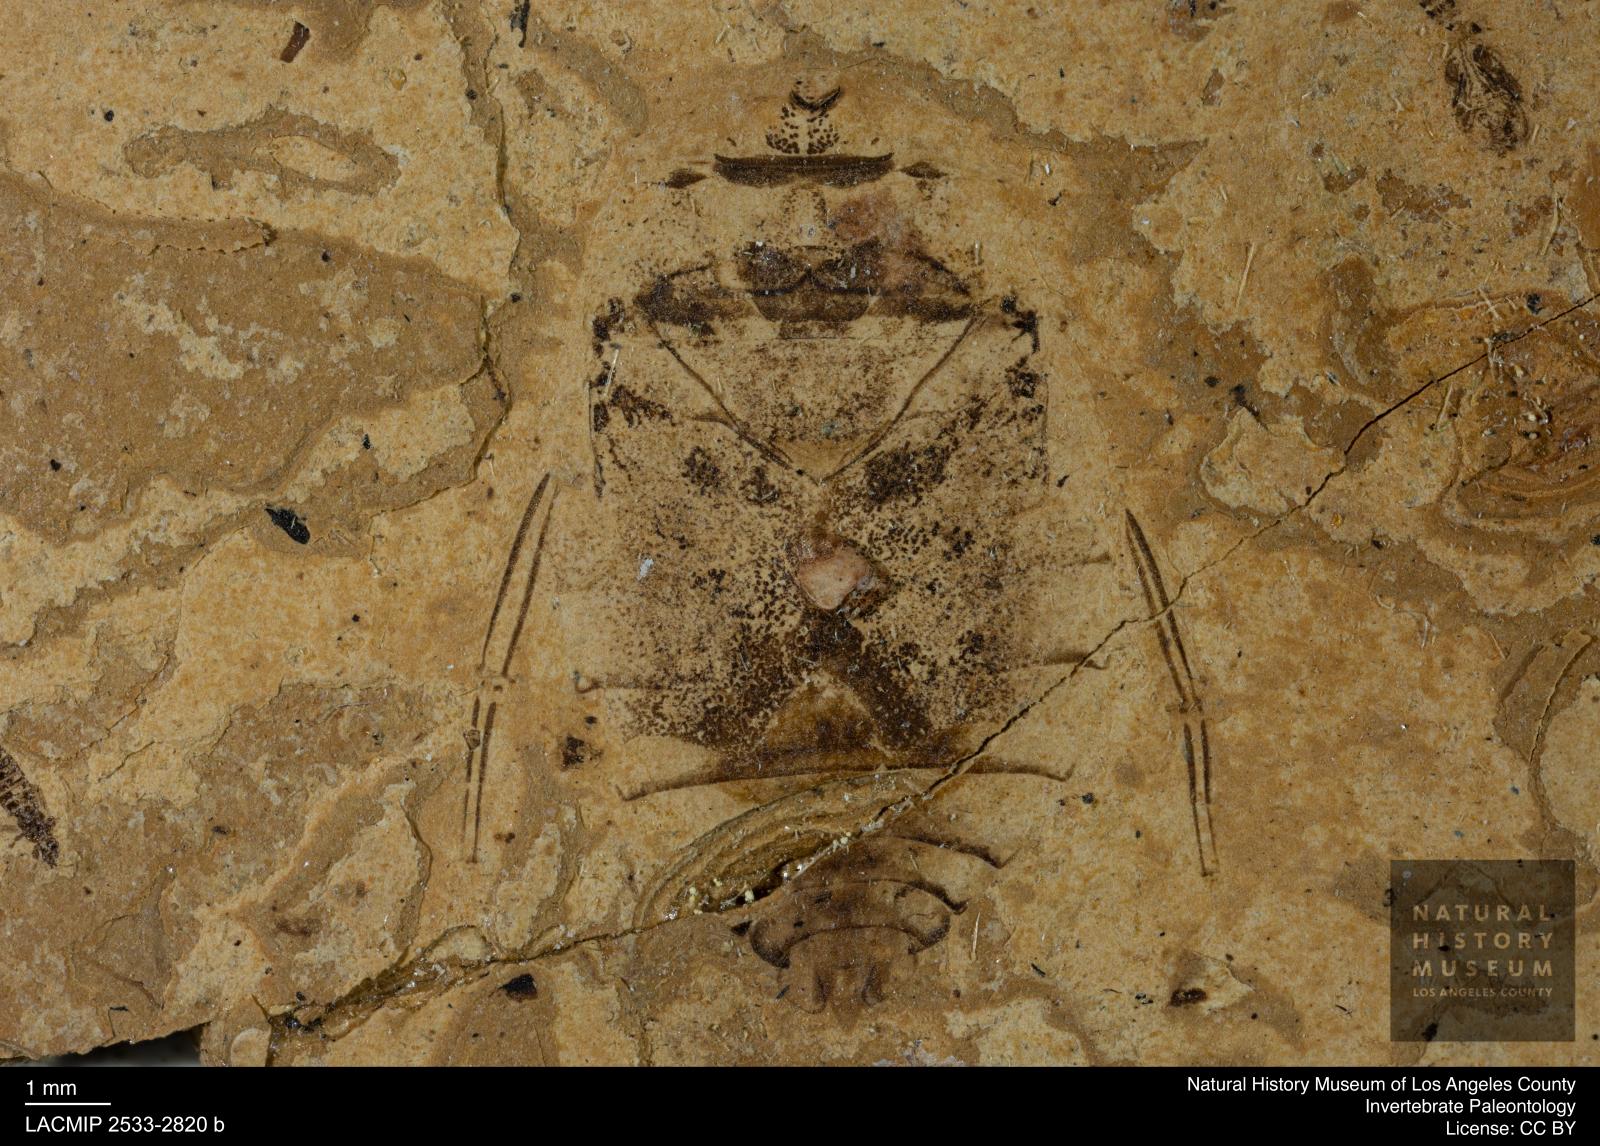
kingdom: Animalia
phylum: Arthropoda
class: Insecta
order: Hemiptera
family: Naucoridae
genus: Naucoris
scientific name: Naucoris rottensis
